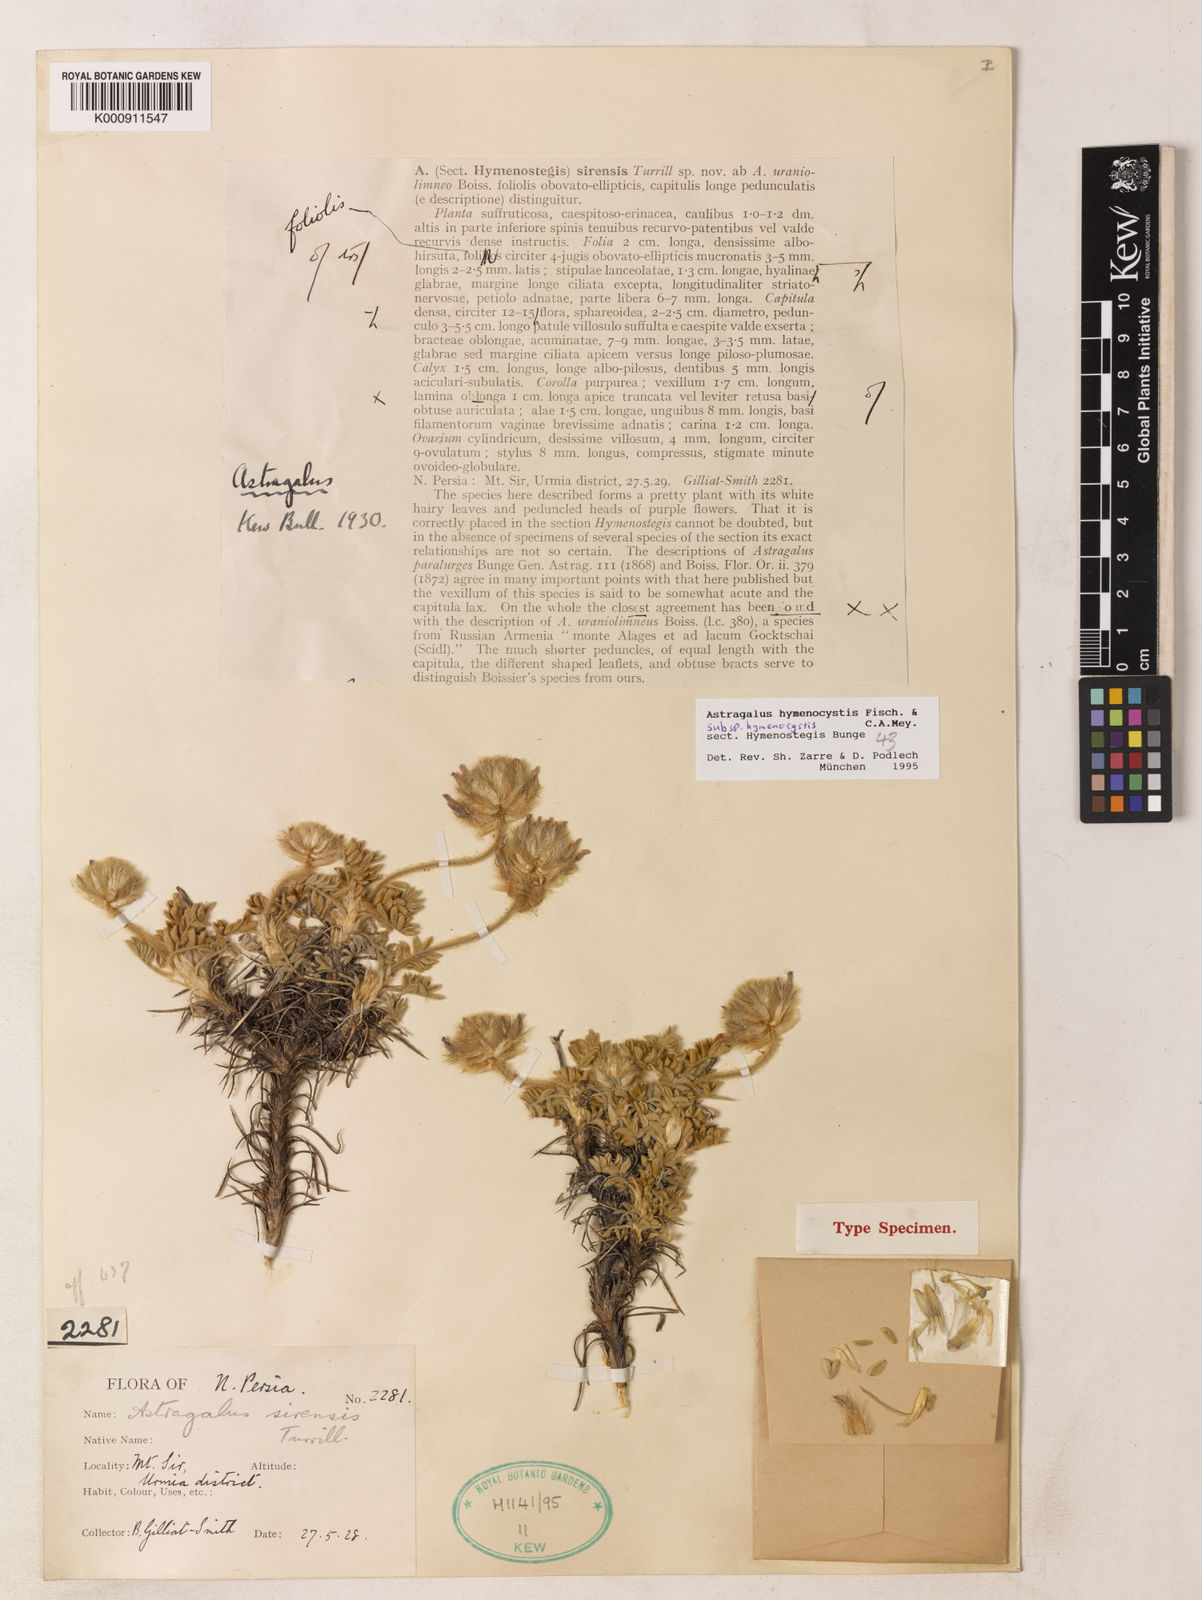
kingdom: Plantae
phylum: Tracheophyta
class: Magnoliopsida
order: Fabales
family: Fabaceae
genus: Astragalus
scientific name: Astragalus hymenocystis
